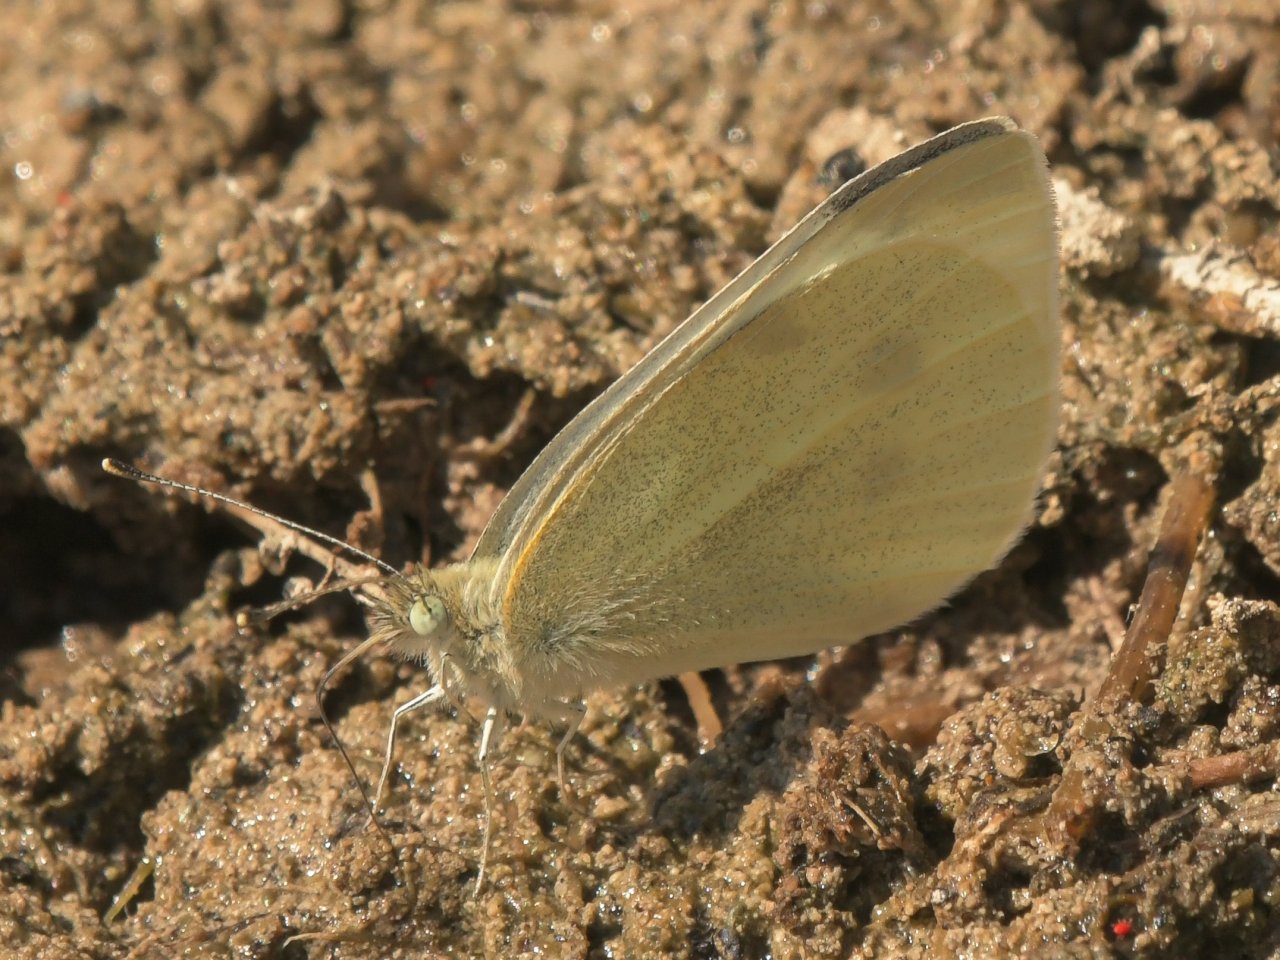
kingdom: Animalia
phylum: Arthropoda
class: Insecta
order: Lepidoptera
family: Pieridae
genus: Pieris
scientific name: Pieris rapae
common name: Cabbage White
